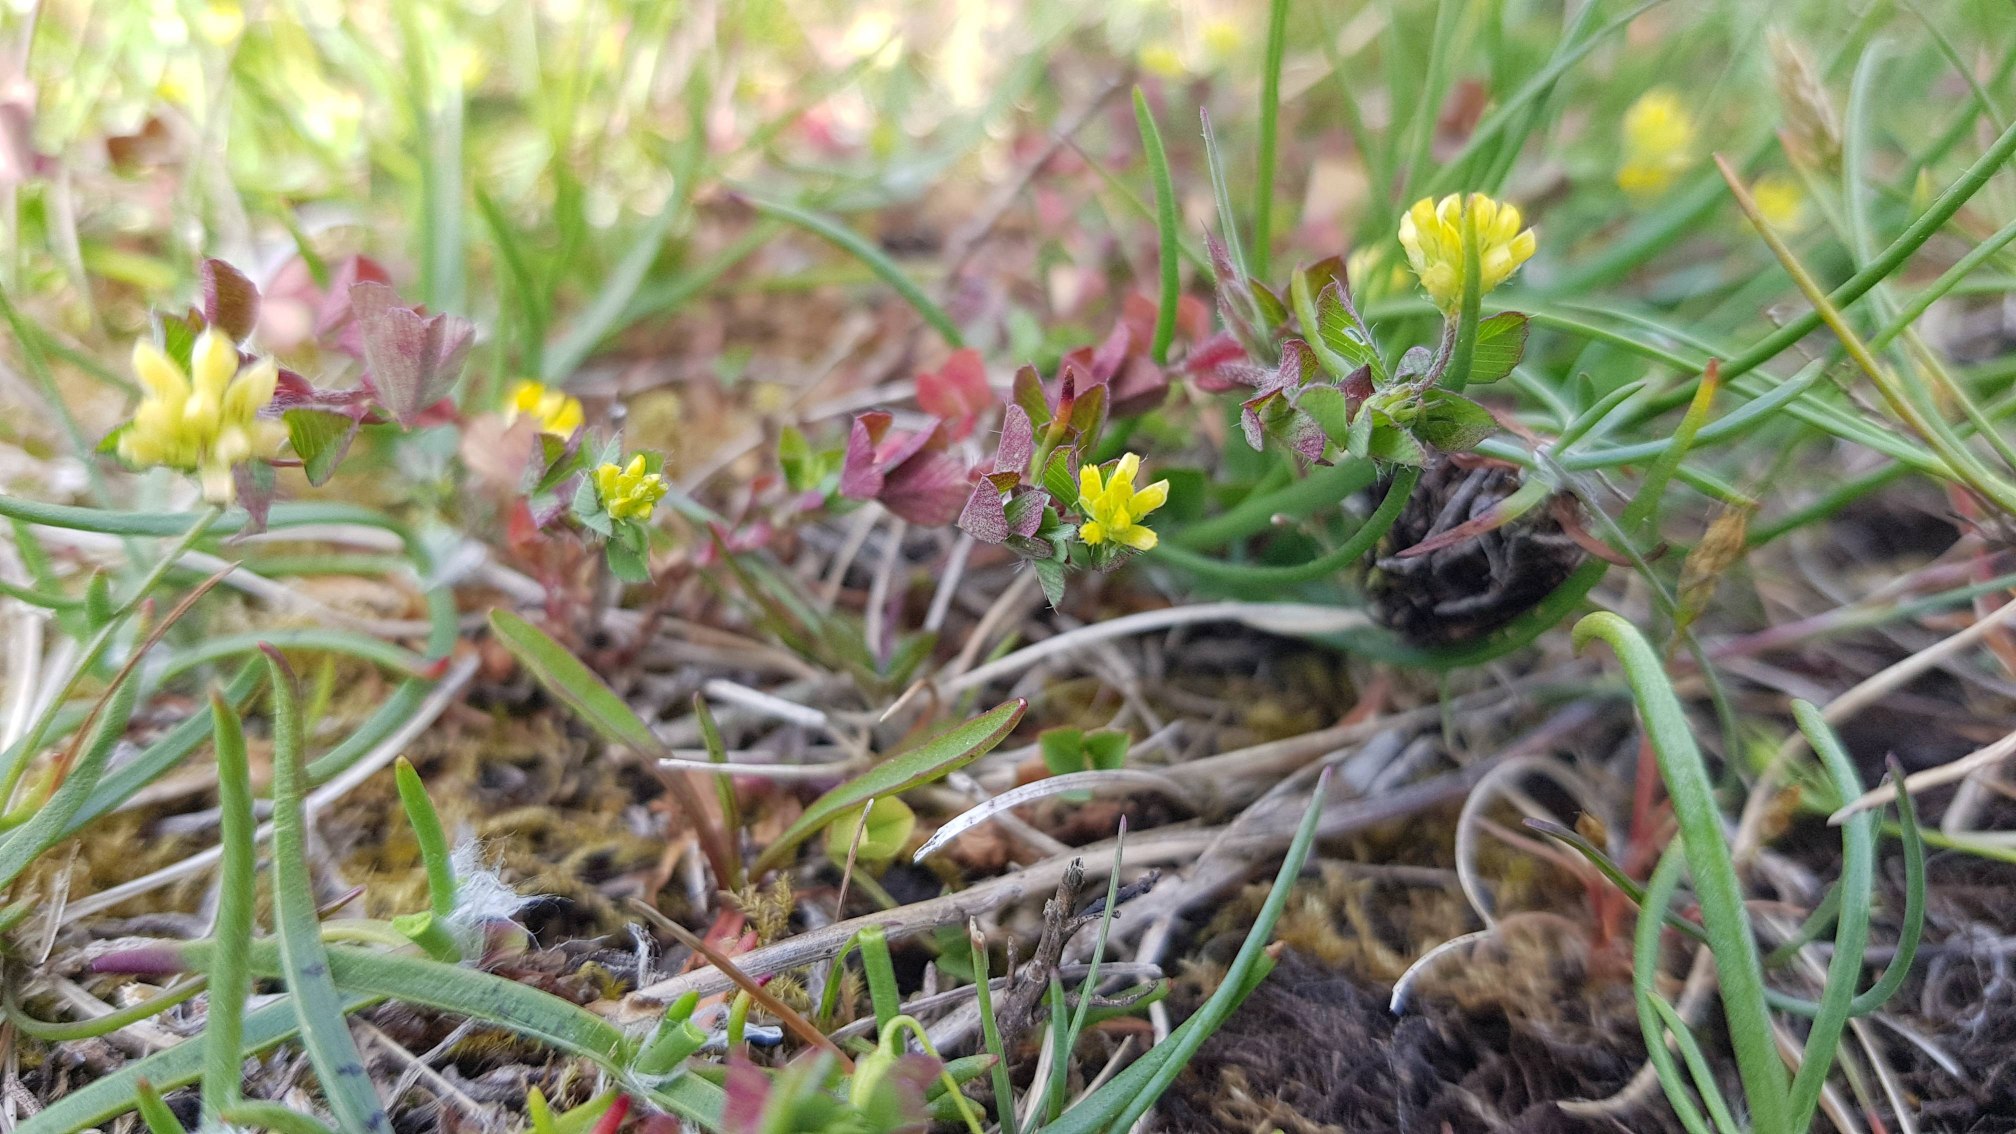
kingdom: Plantae
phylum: Tracheophyta
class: Magnoliopsida
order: Fabales
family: Fabaceae
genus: Trifolium
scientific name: Trifolium dubium
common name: Fin kløver
